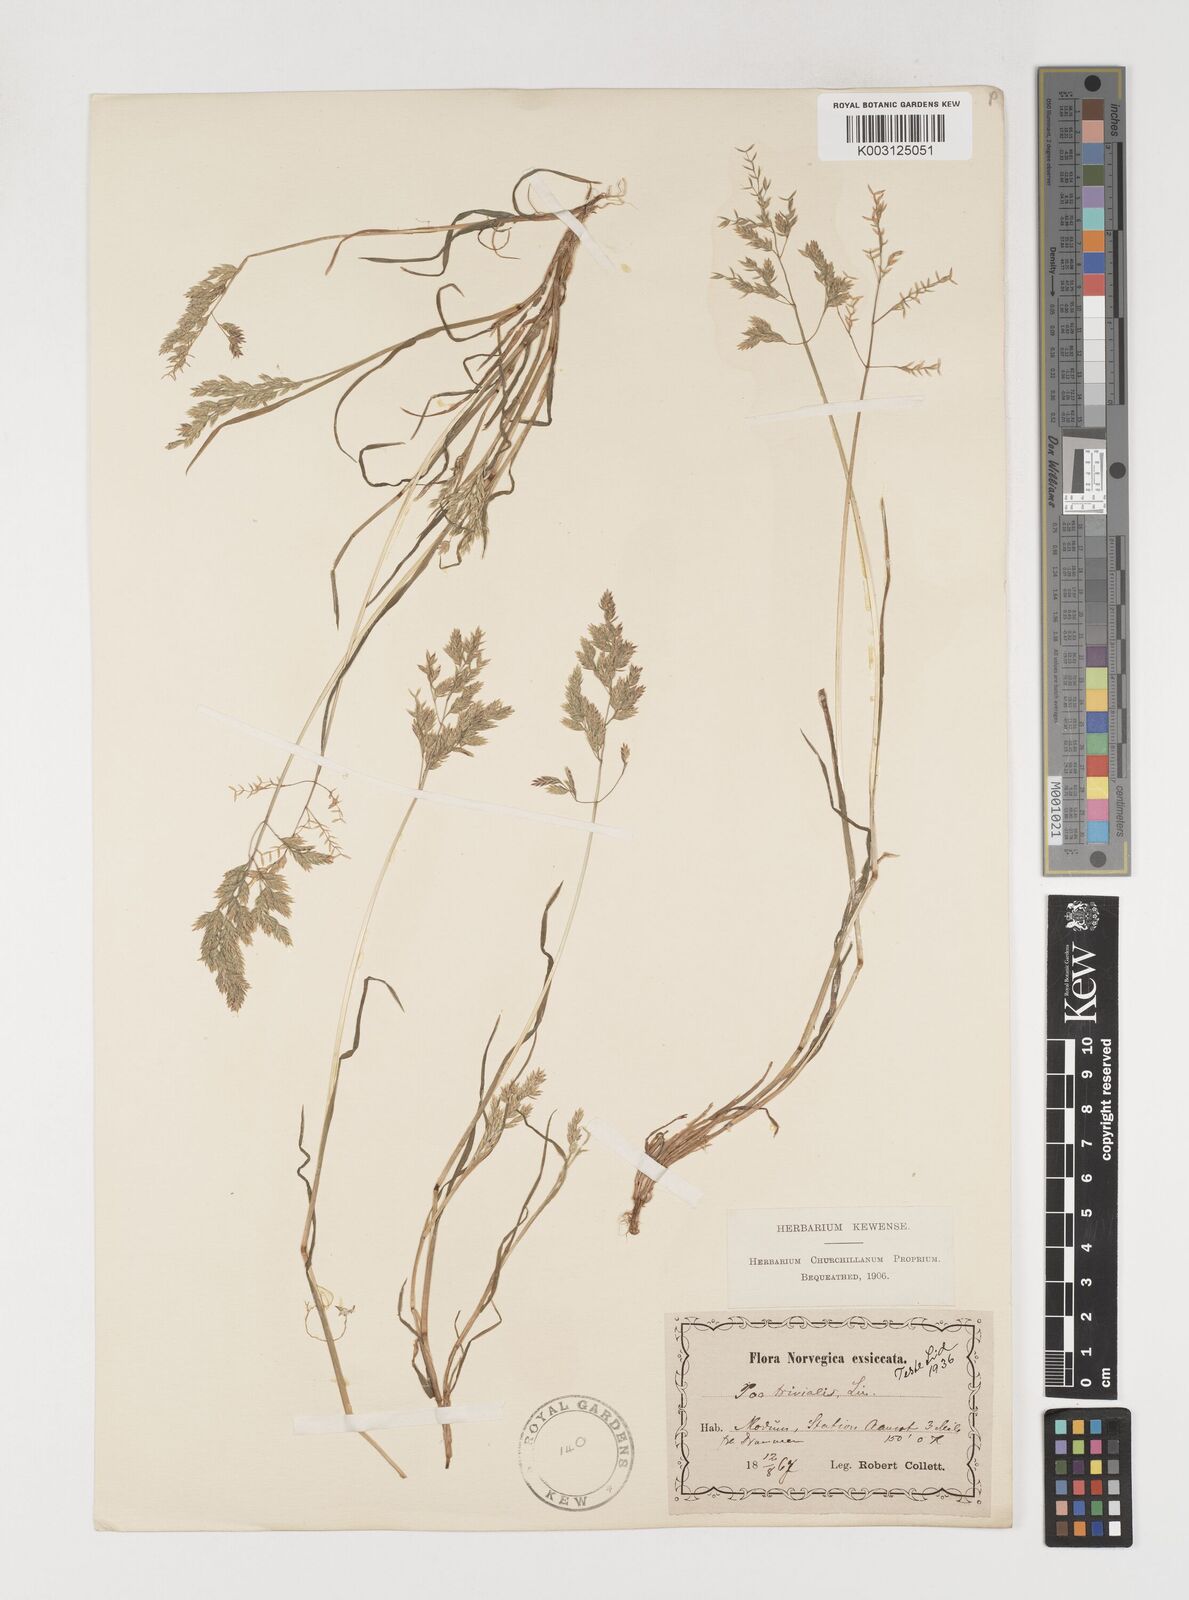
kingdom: Plantae
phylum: Tracheophyta
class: Liliopsida
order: Poales
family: Poaceae
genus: Poa
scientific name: Poa trivialis
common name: Rough bluegrass
